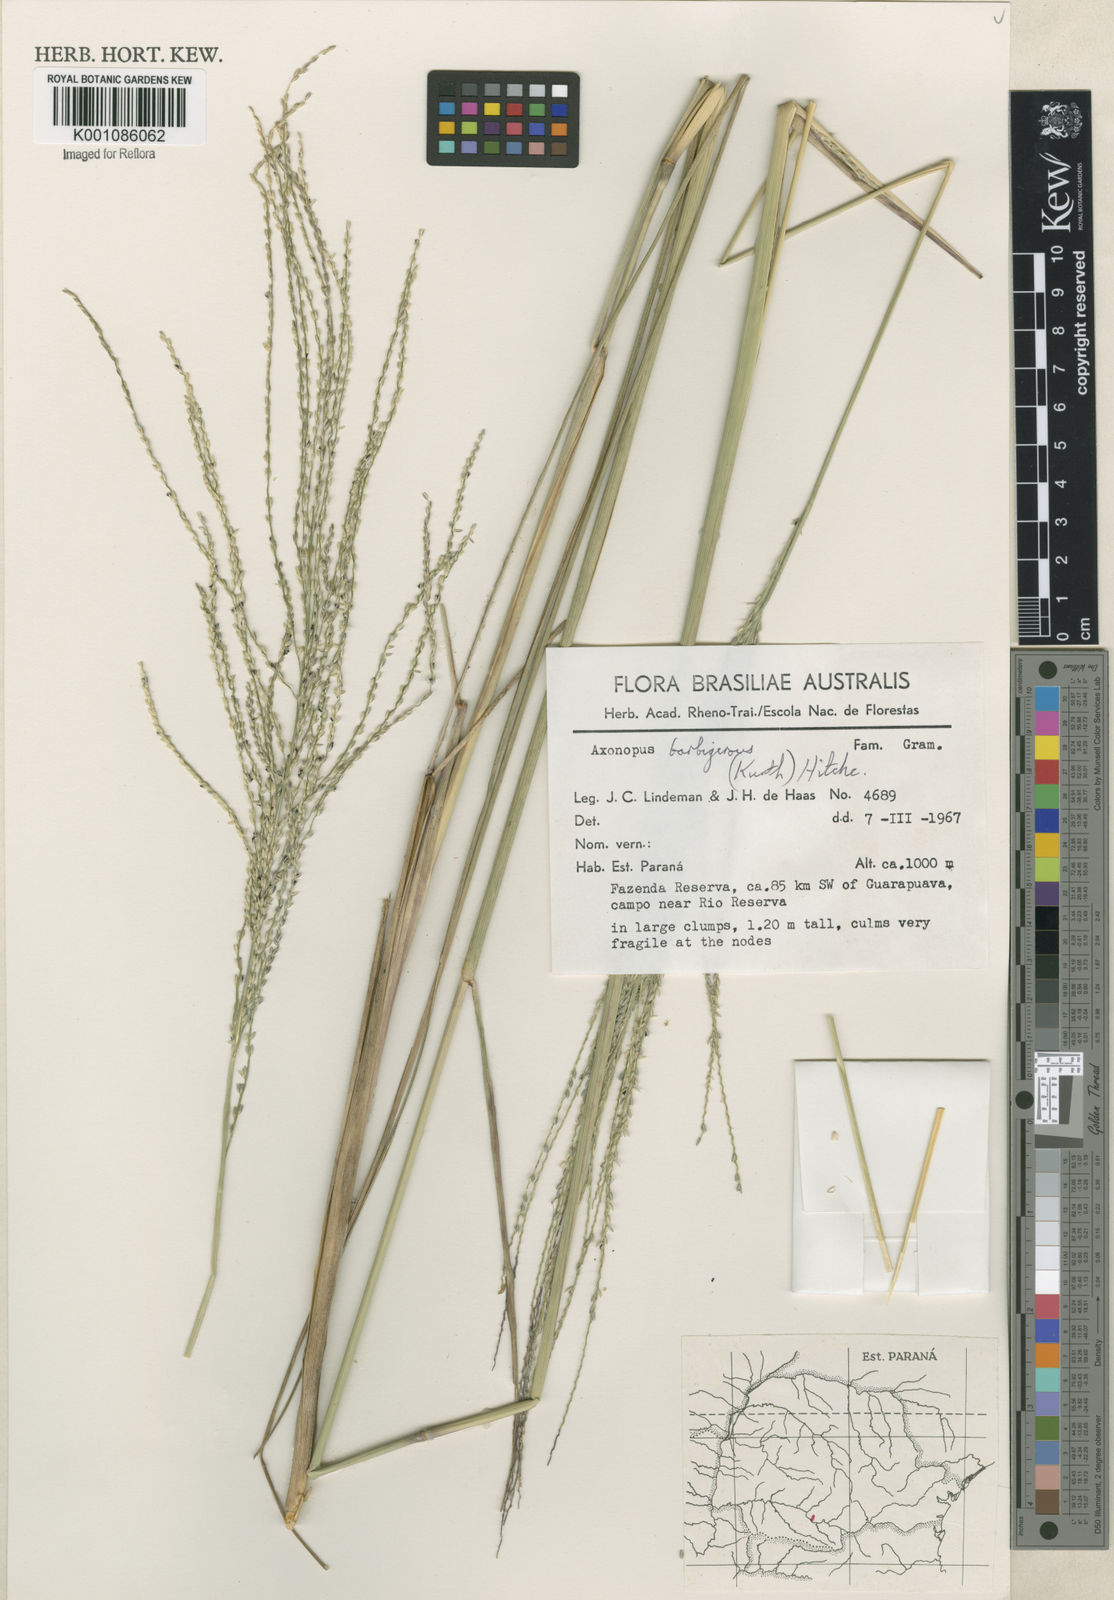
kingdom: Plantae
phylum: Tracheophyta
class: Liliopsida
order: Poales
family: Poaceae
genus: Axonopus
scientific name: Axonopus siccus
